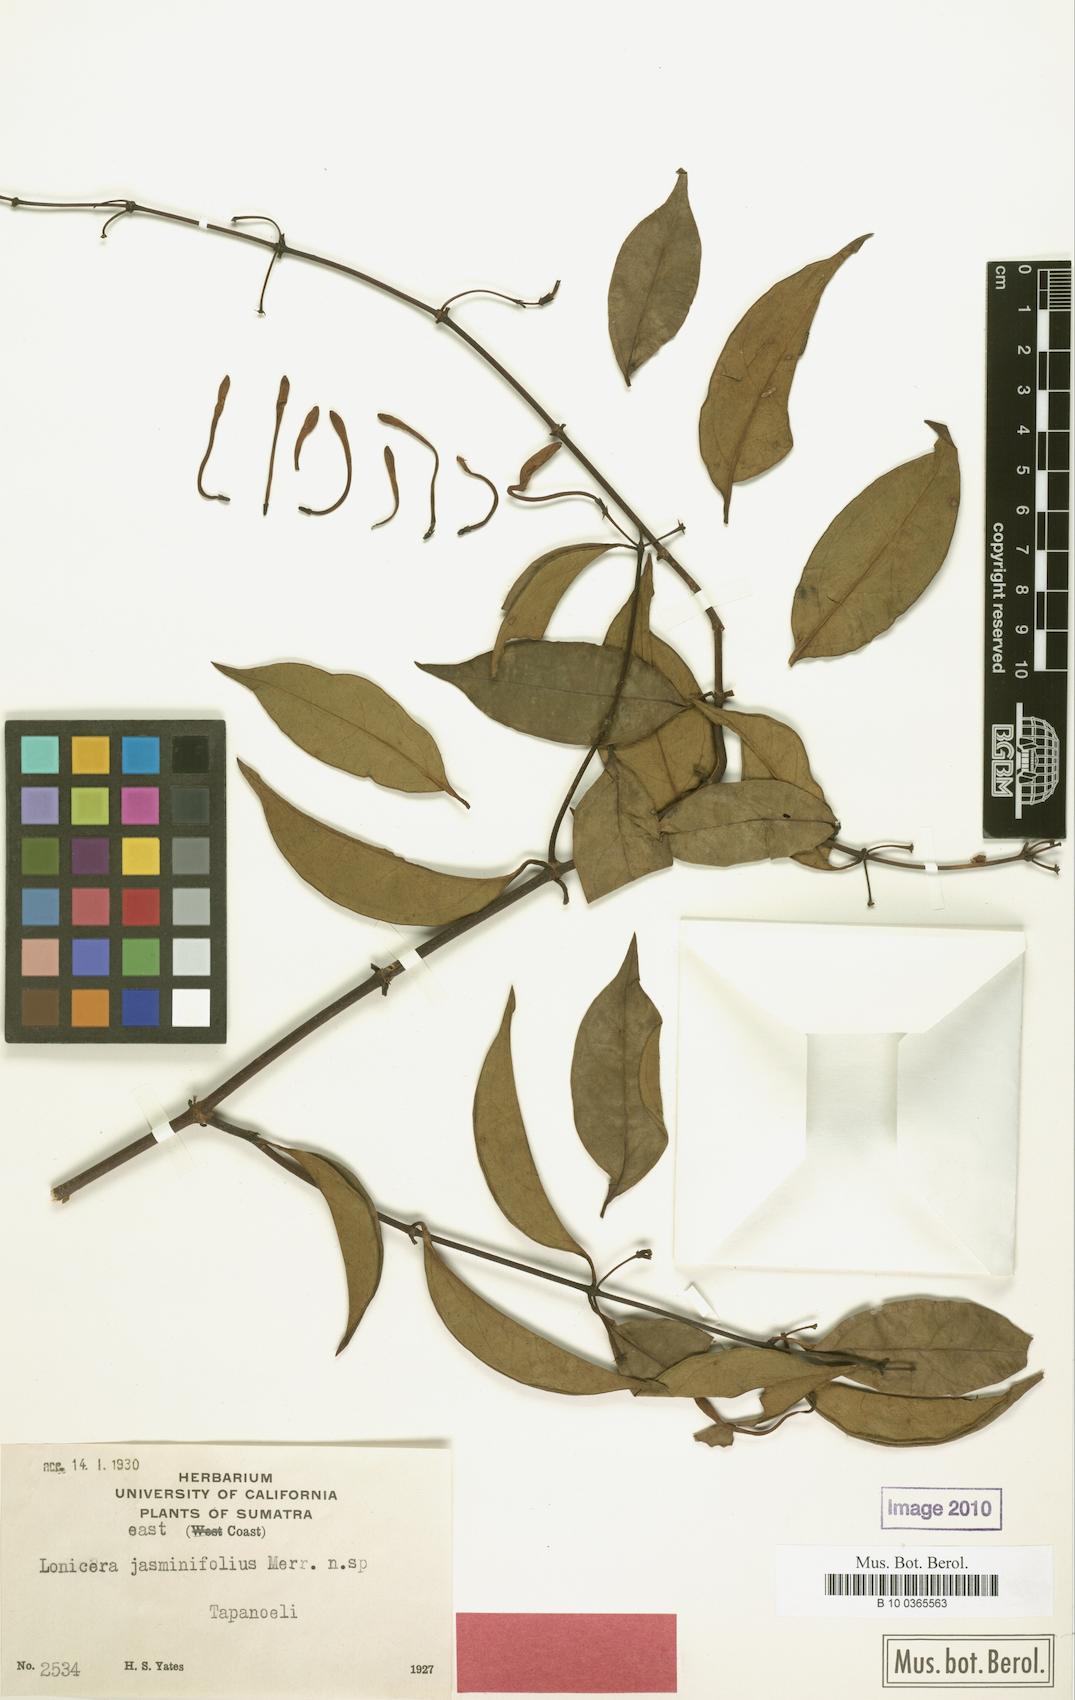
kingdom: Plantae
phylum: Tracheophyta
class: Magnoliopsida
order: Dipsacales
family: Caprifoliaceae
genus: Lonicera
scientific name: Lonicera sumatrana
